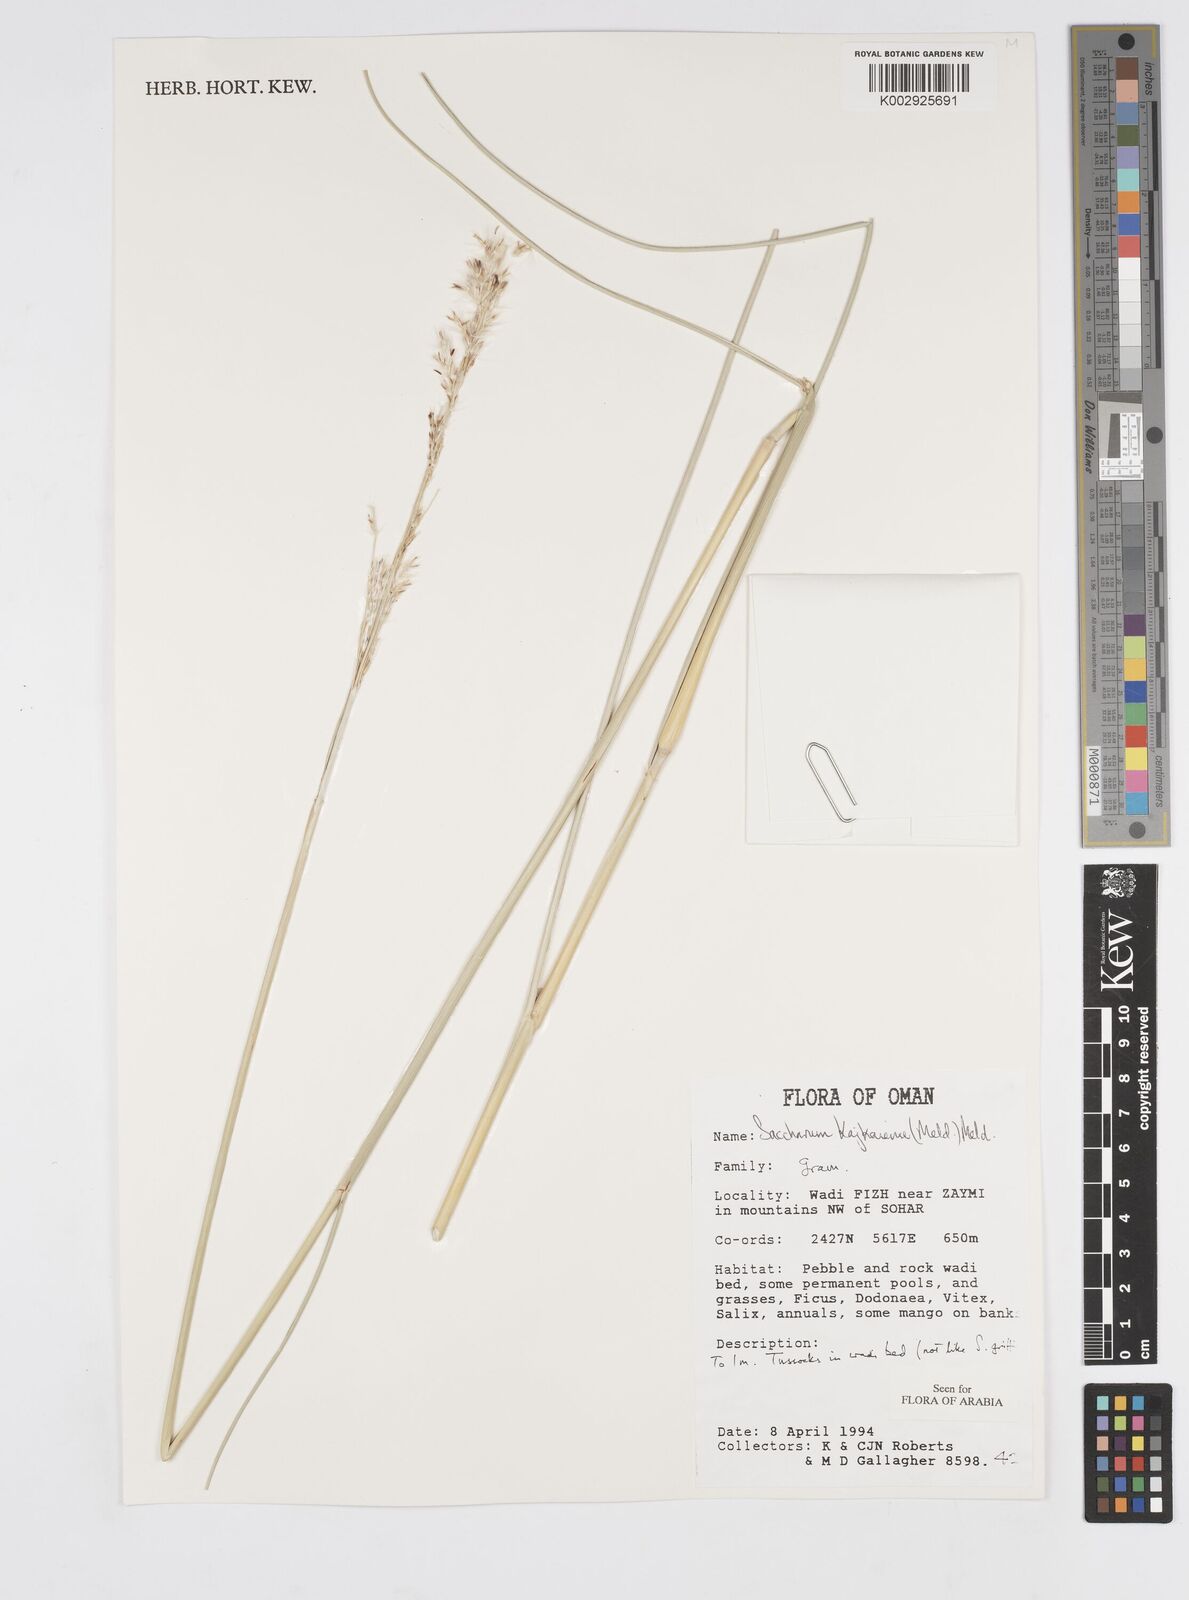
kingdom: Plantae
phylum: Tracheophyta
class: Liliopsida
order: Poales
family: Poaceae
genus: Saccharum
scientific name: Saccharum kajkaiense
